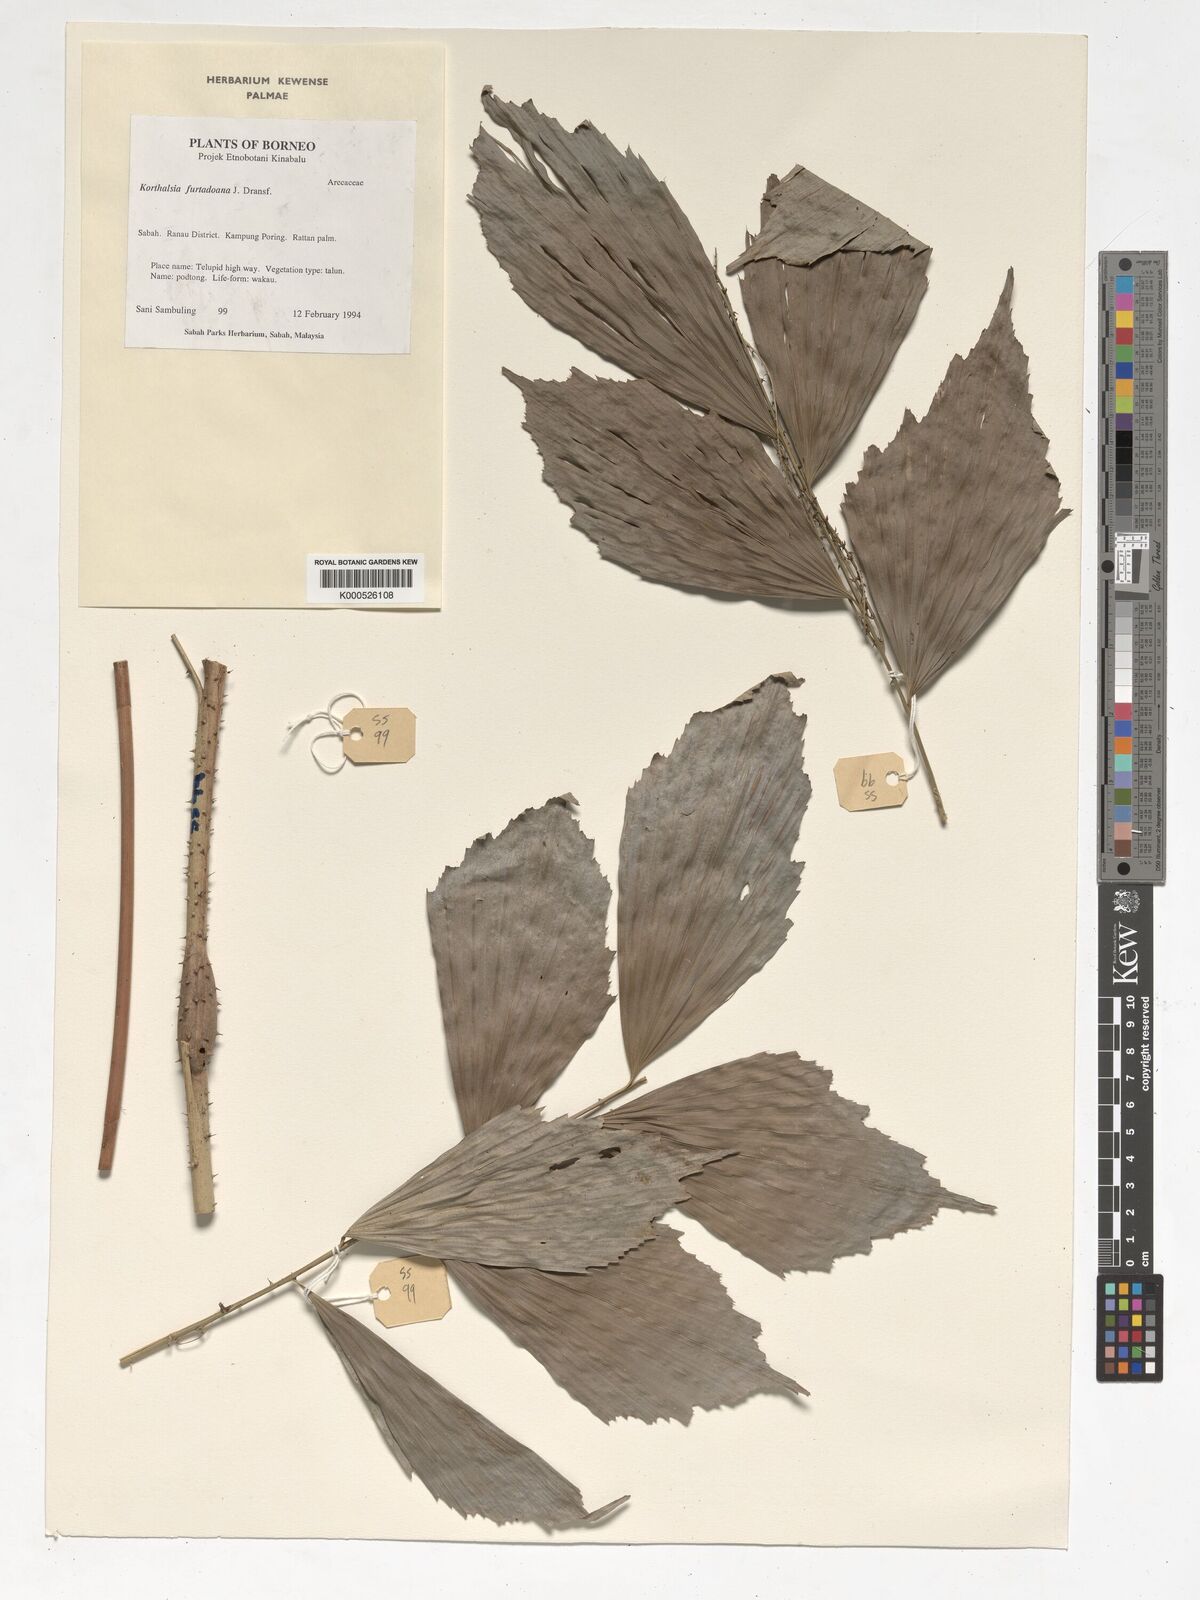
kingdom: Plantae
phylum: Tracheophyta
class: Liliopsida
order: Arecales
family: Arecaceae
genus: Korthalsia
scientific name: Korthalsia furtadoana
